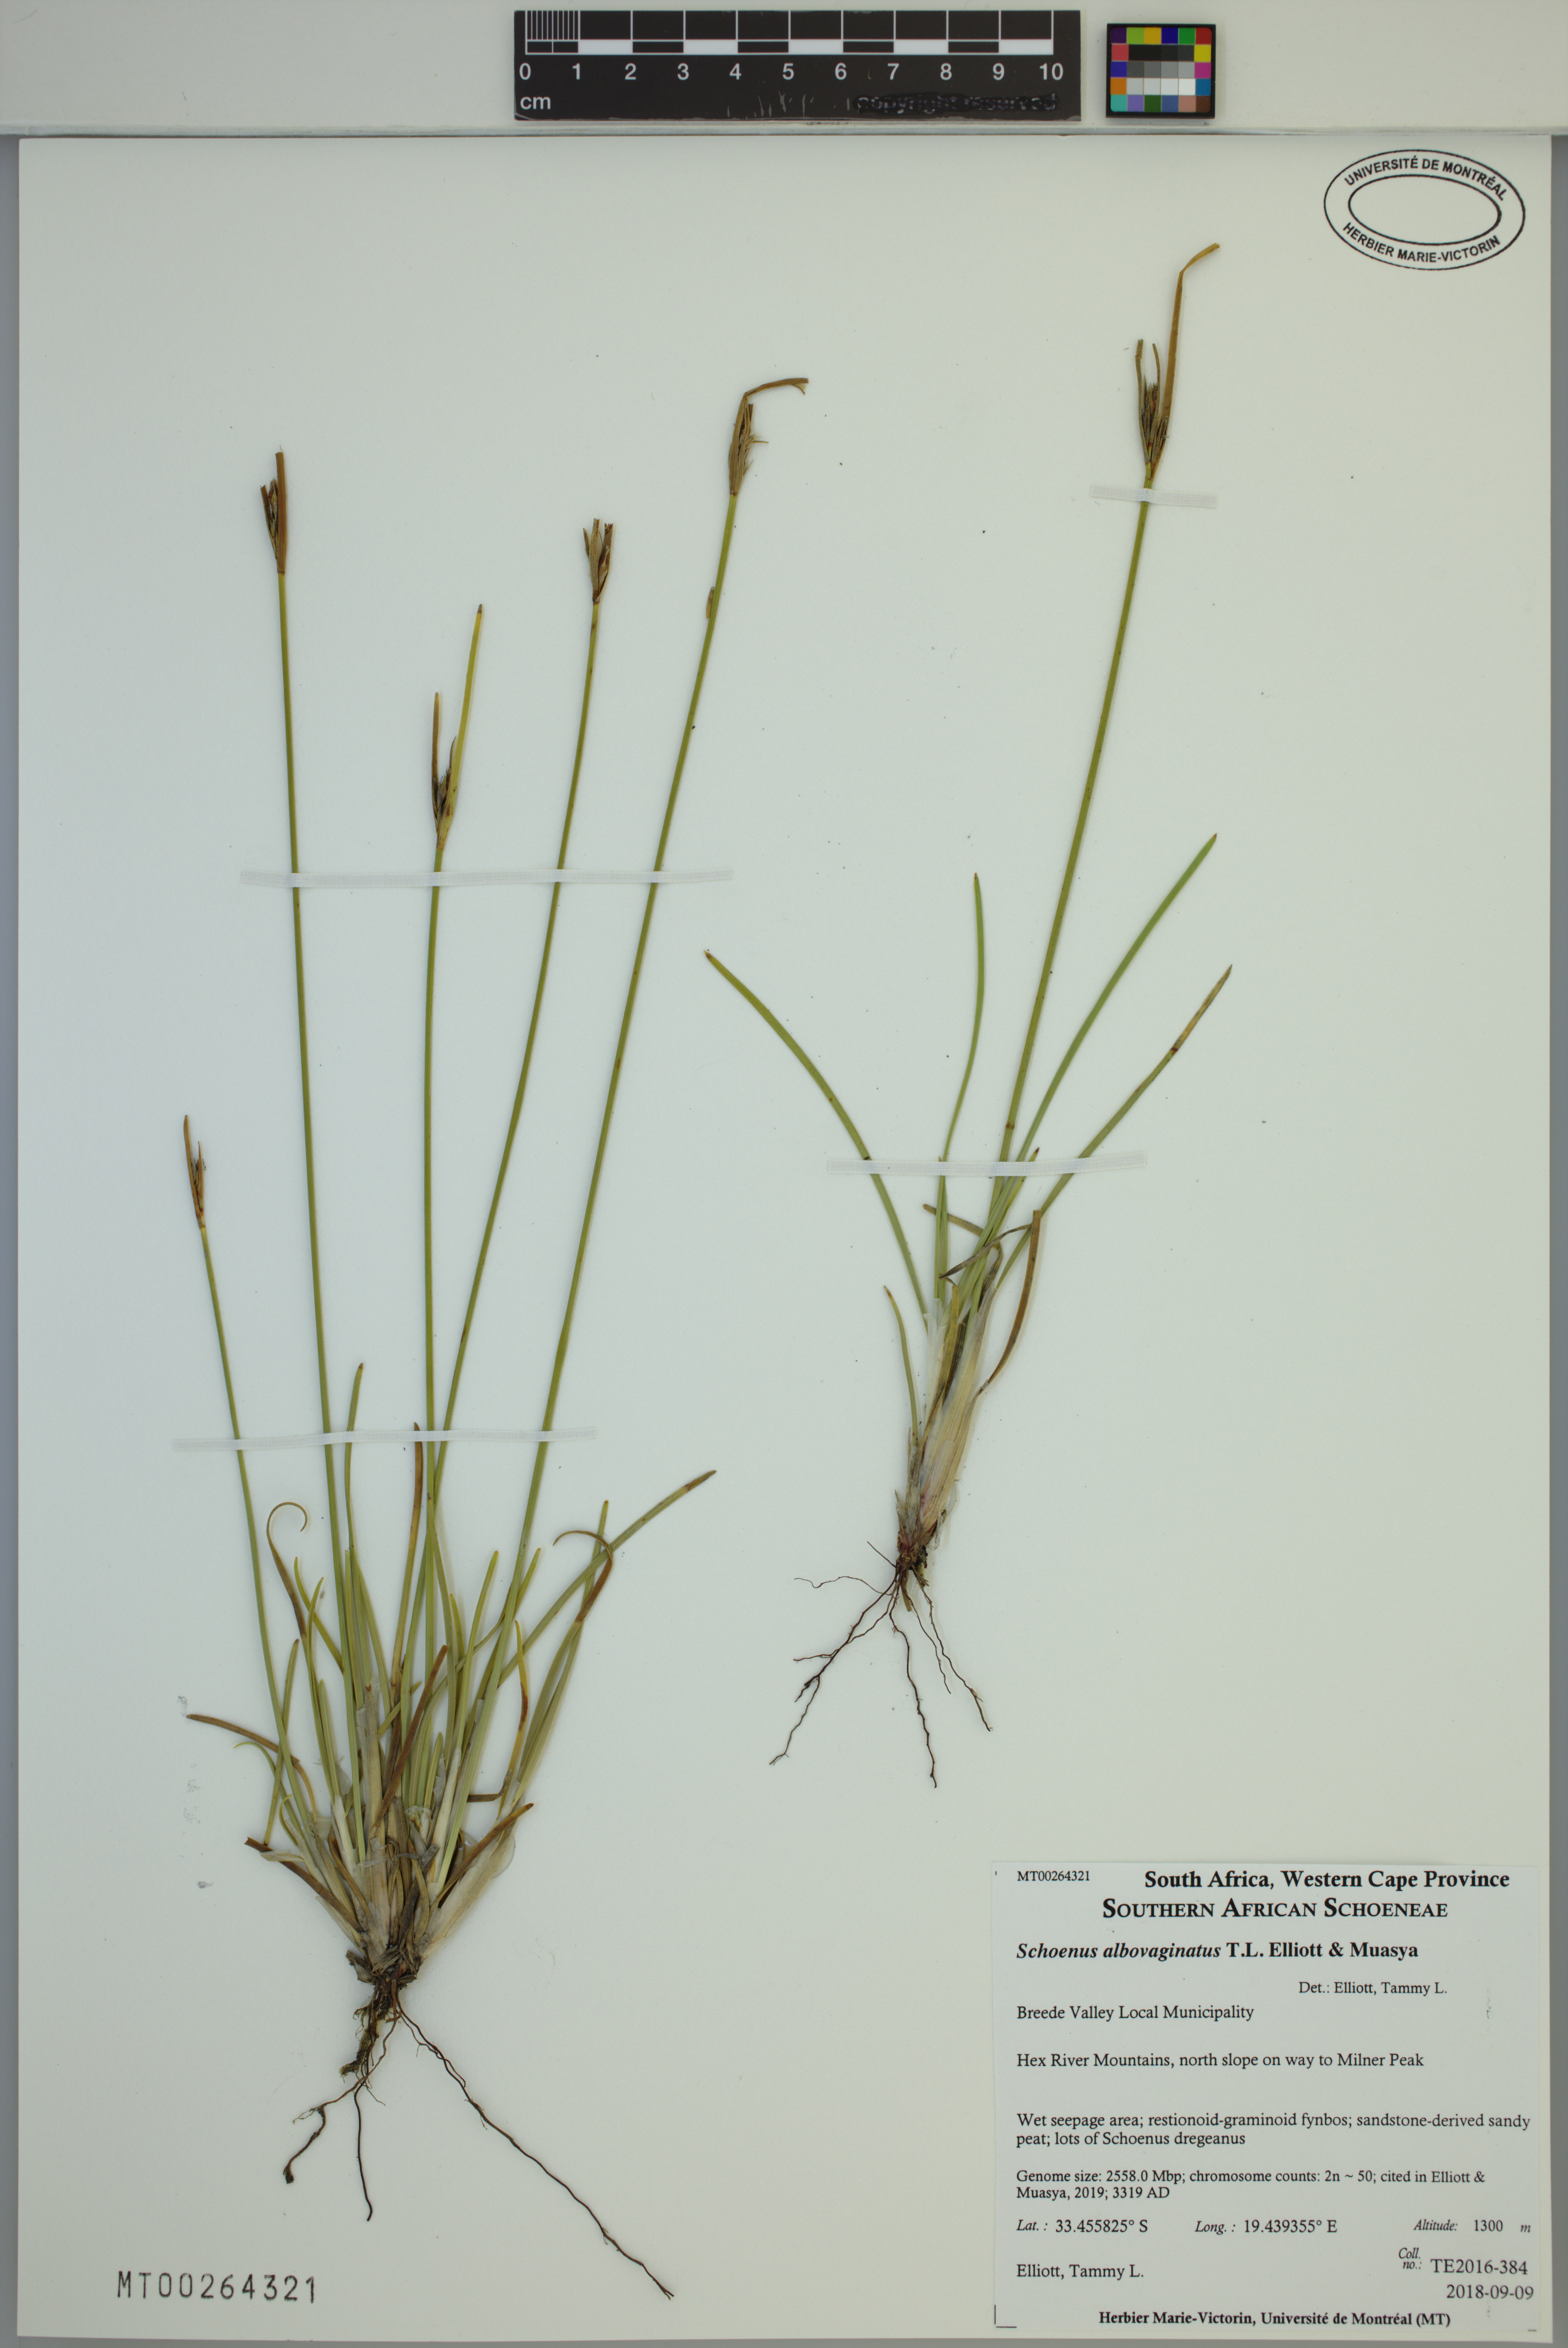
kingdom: Plantae
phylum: Tracheophyta
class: Liliopsida
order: Poales
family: Cyperaceae
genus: Schoenus
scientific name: Schoenus albovaginatus
